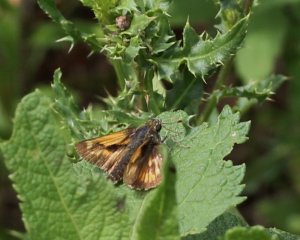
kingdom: Animalia
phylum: Arthropoda
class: Insecta
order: Lepidoptera
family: Hesperiidae
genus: Polites
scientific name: Polites
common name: Long Dash Skipper
